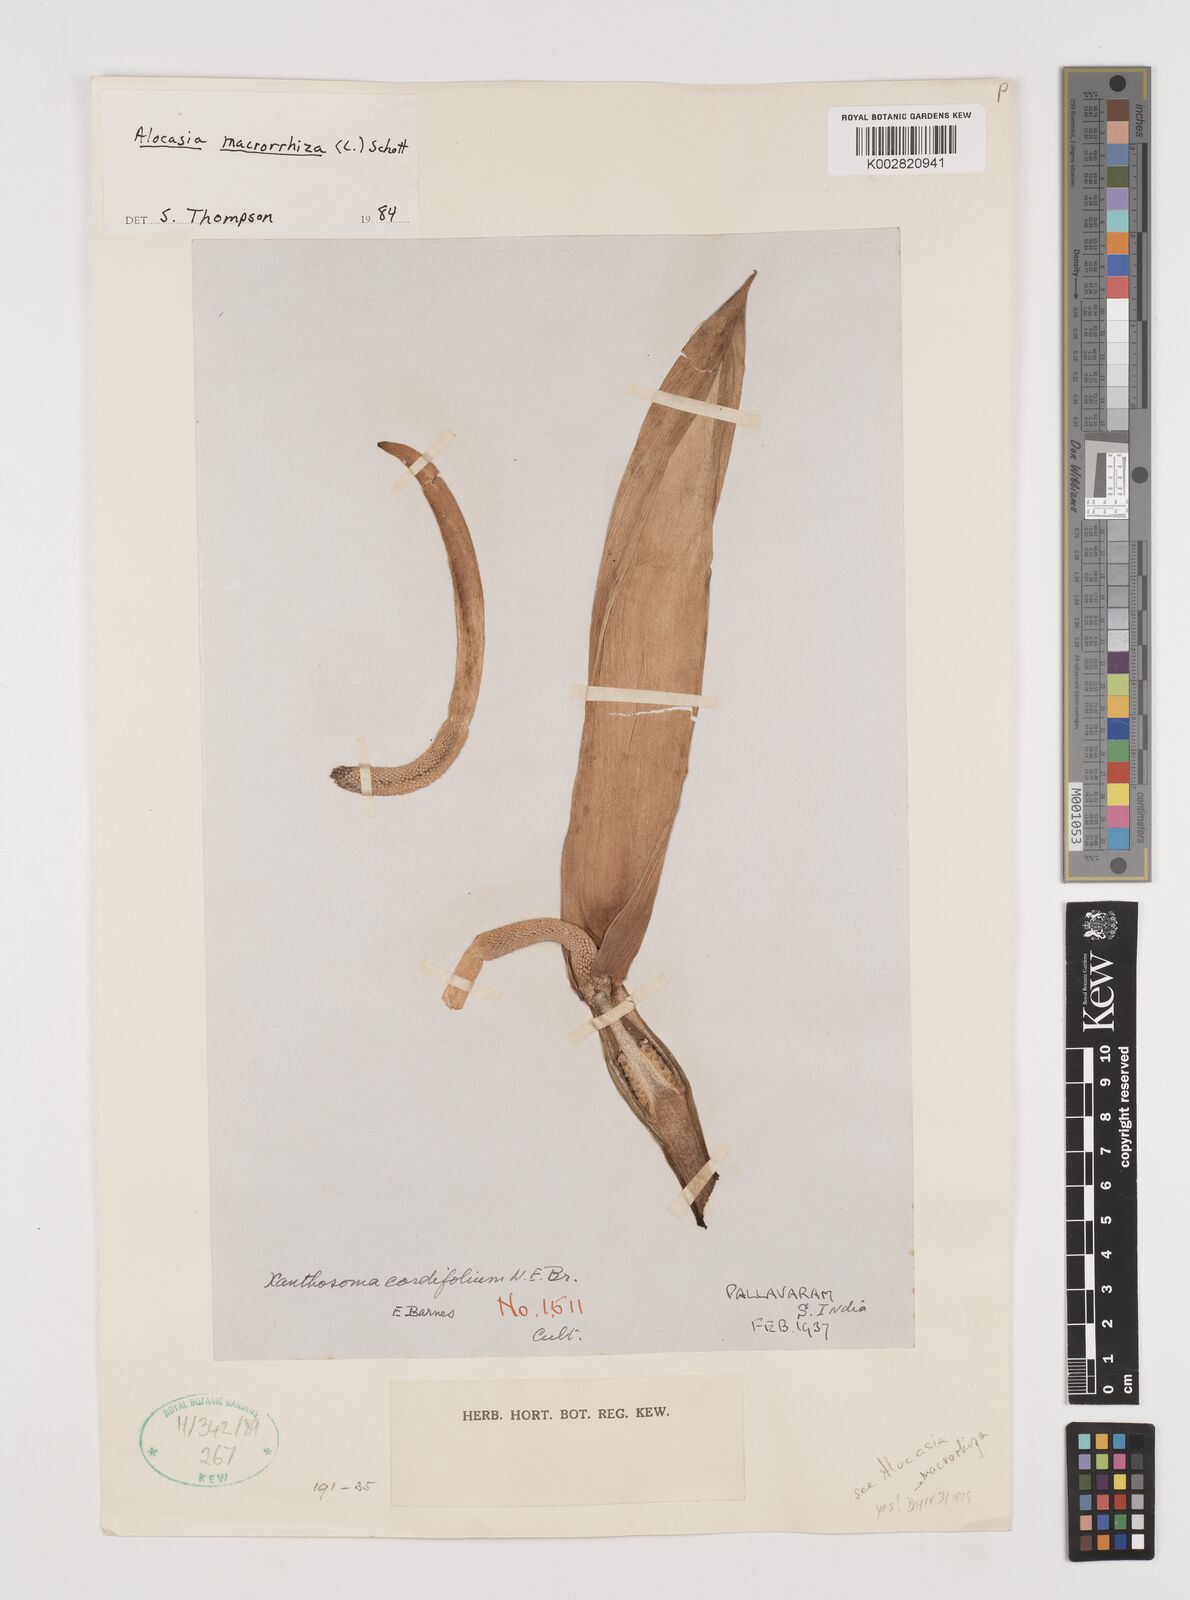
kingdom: Plantae
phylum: Tracheophyta
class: Liliopsida
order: Alismatales
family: Araceae
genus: Alocasia
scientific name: Alocasia macrorrhizos
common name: Giant taro
